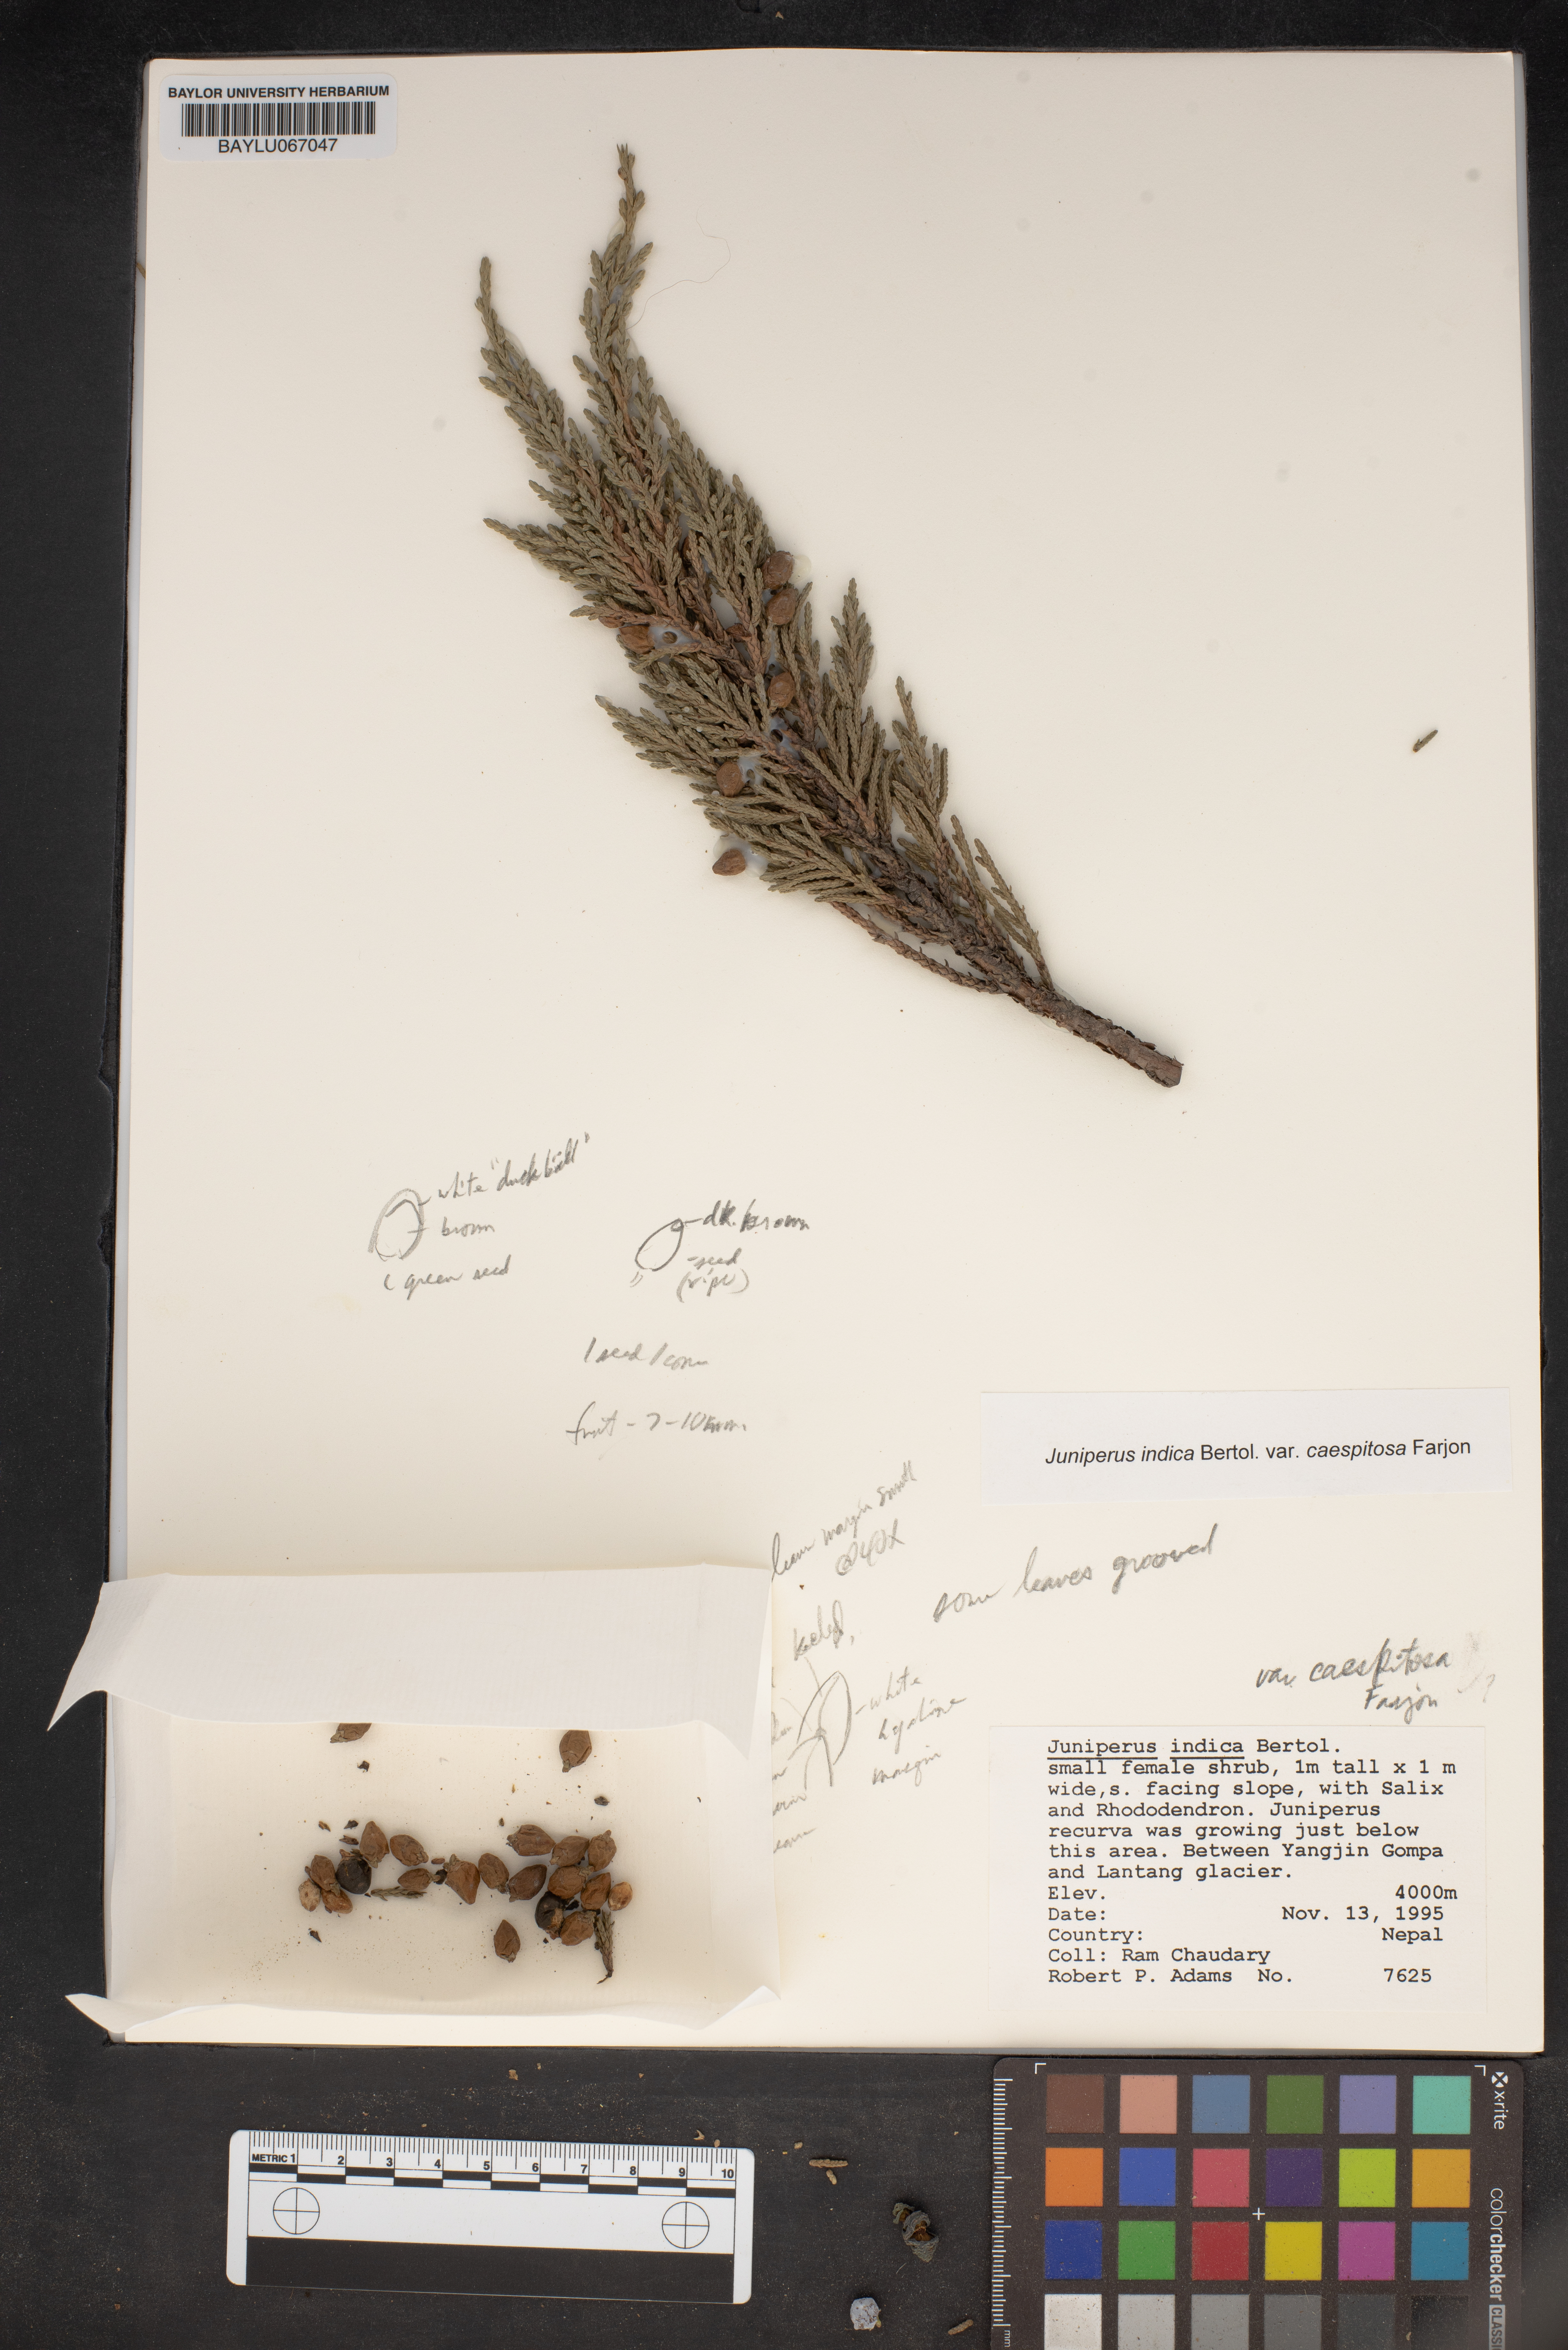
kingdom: Plantae
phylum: Tracheophyta
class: Pinopsida
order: Pinales
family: Cupressaceae
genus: Juniperus
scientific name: Juniperus indica
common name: Black juniper
